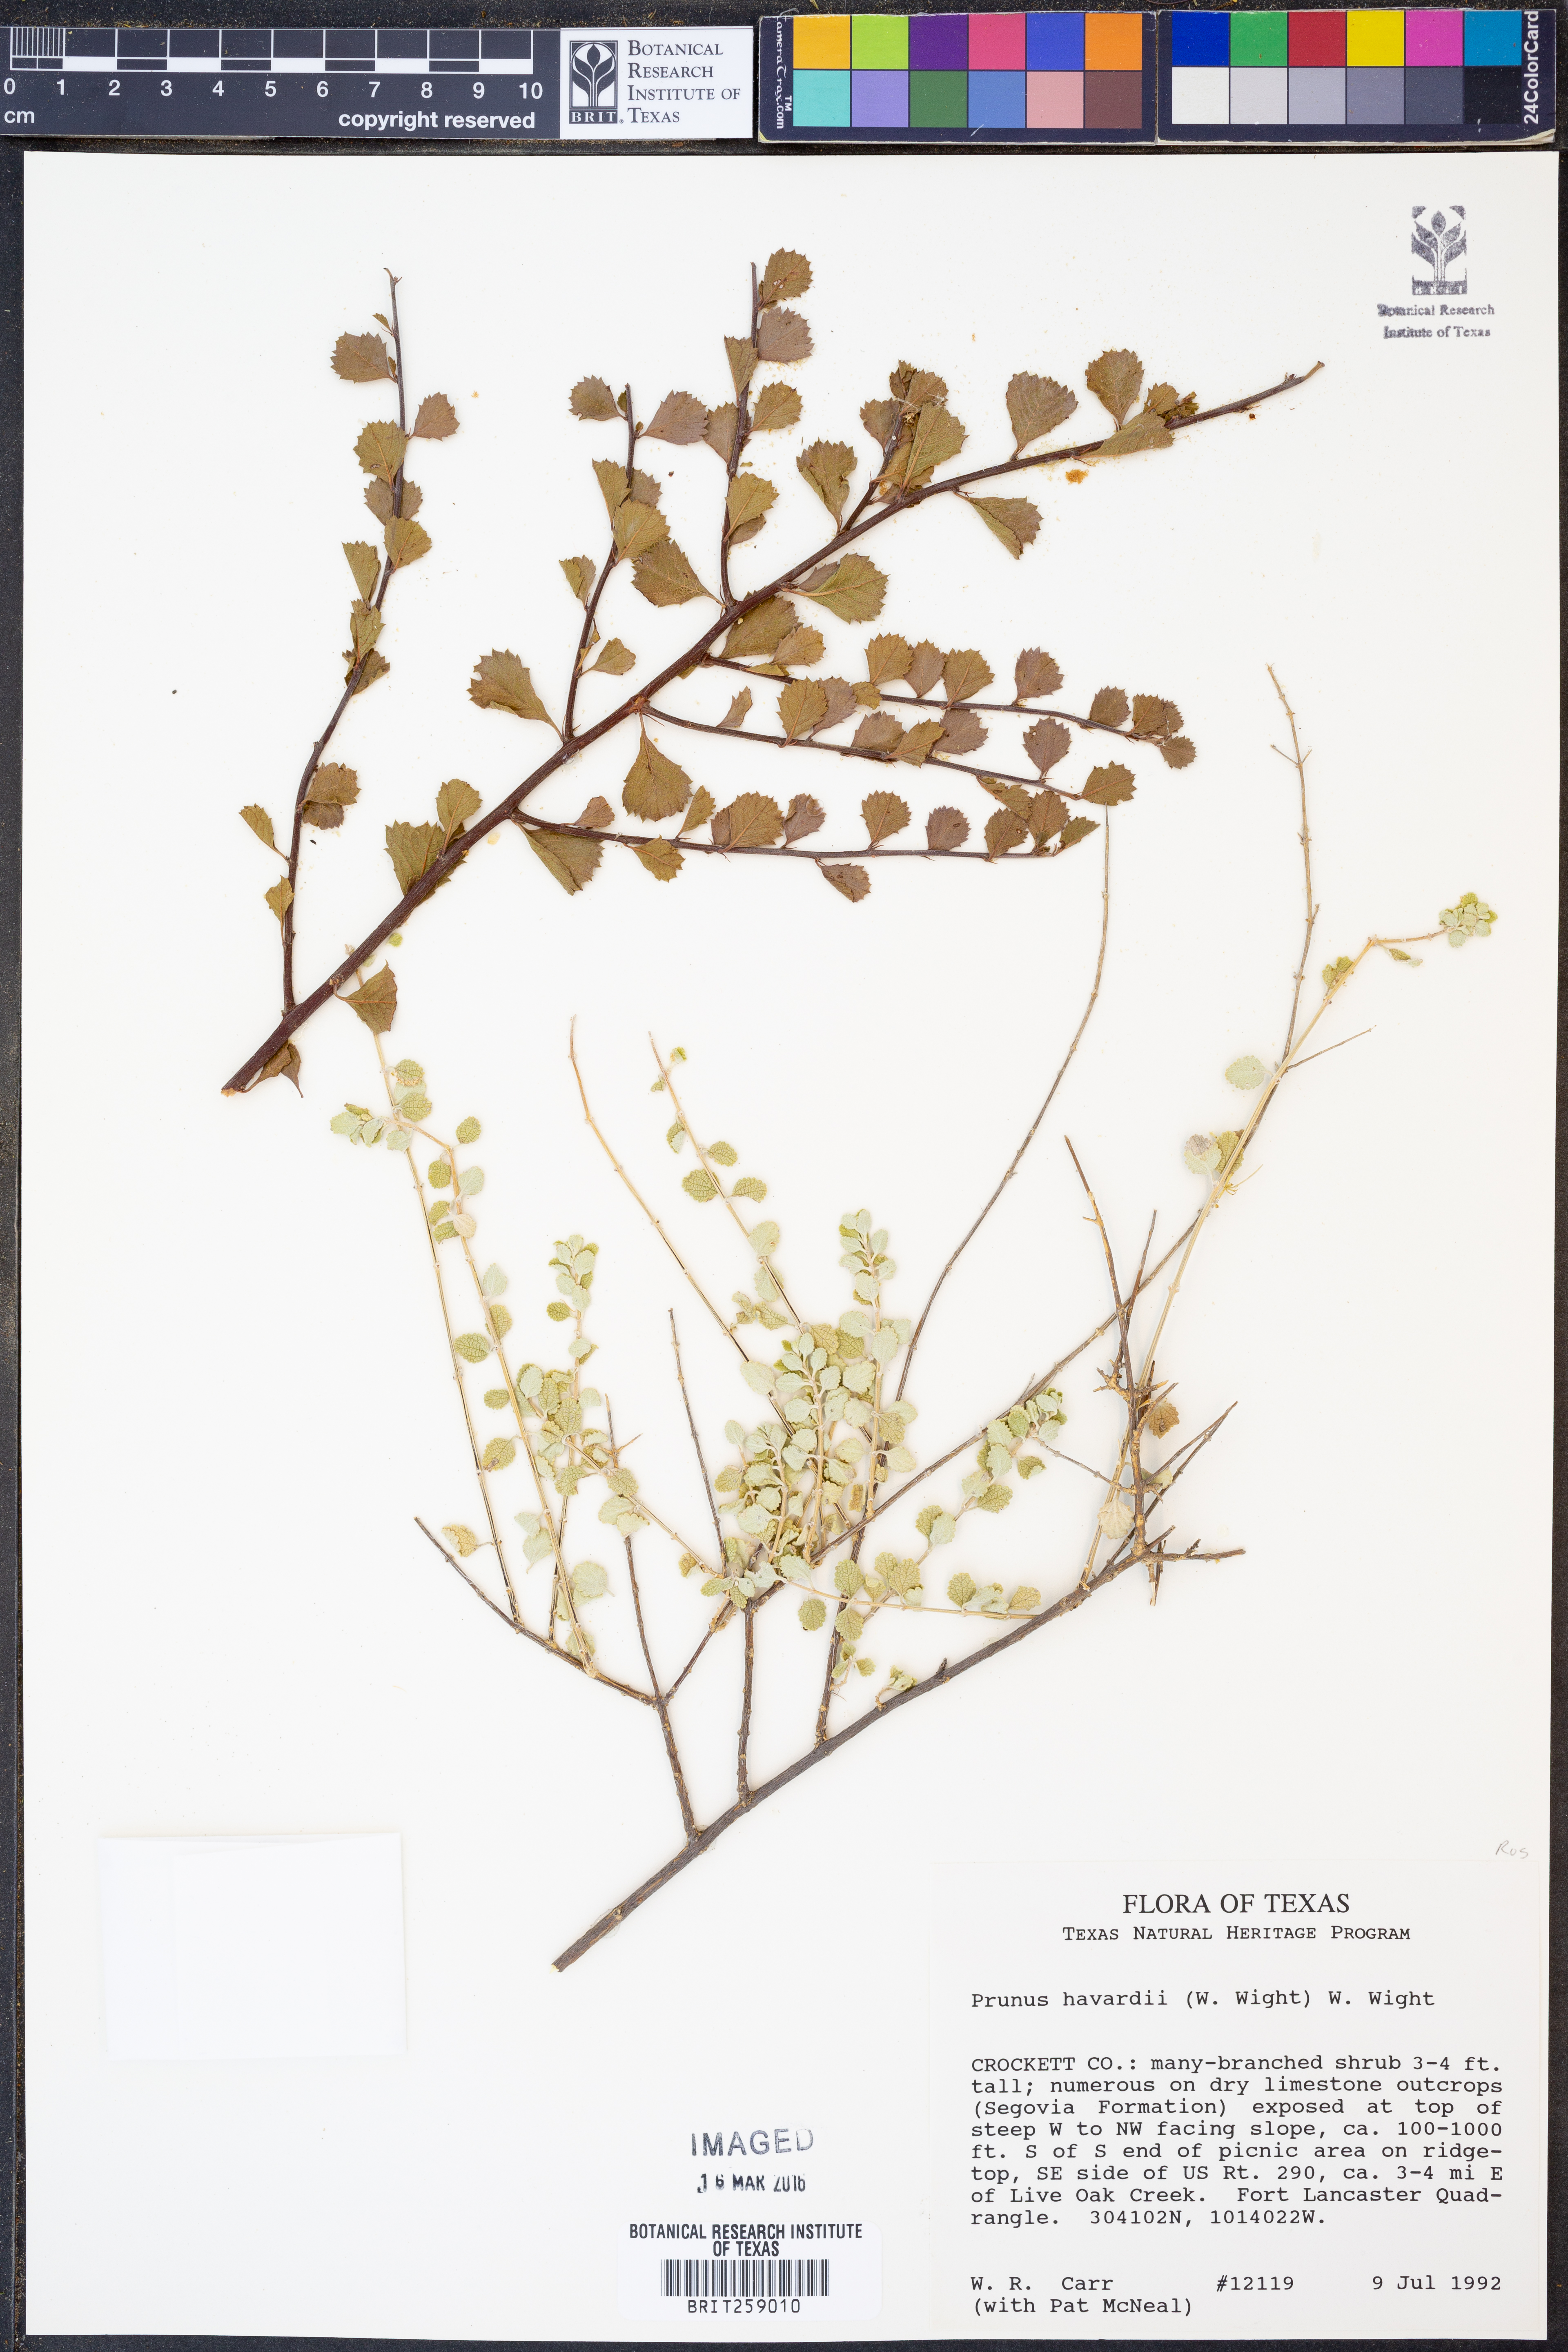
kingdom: Plantae
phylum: Tracheophyta
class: Magnoliopsida
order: Rosales
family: Rosaceae
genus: Prunus
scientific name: Prunus havardii
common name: Havard plum
